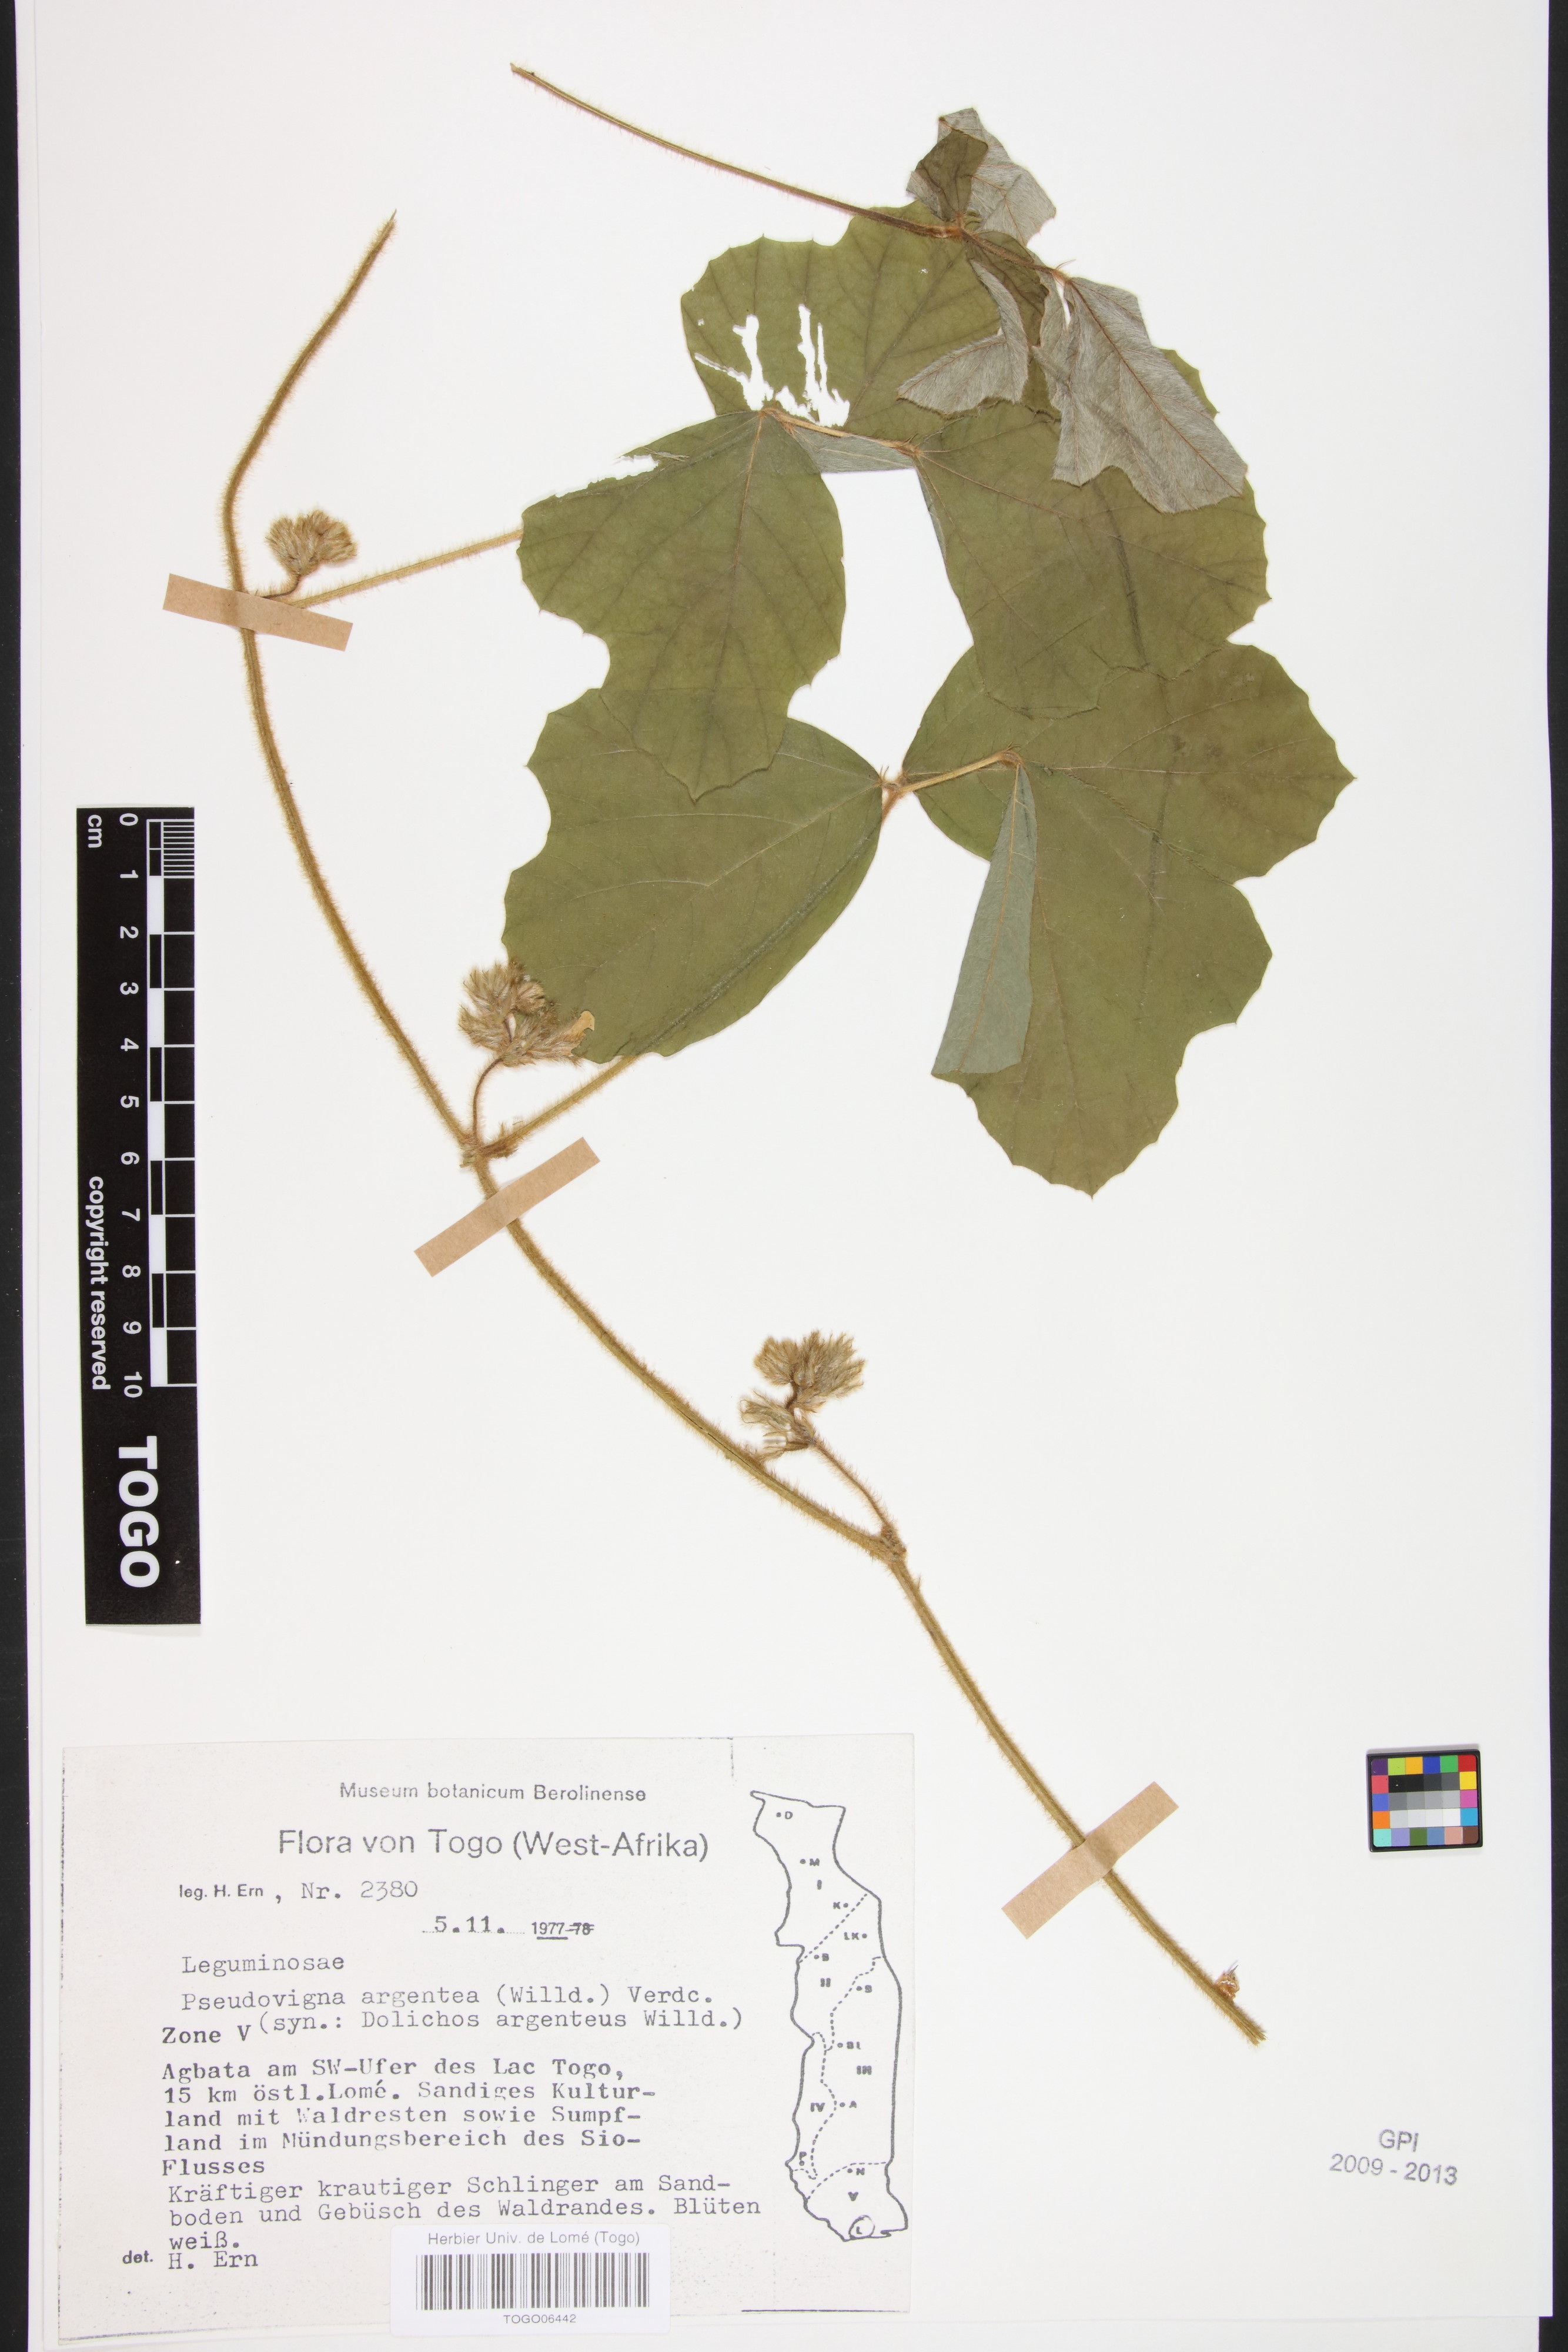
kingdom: Plantae
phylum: Tracheophyta
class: Magnoliopsida
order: Fabales
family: Fabaceae
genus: Pseudovigna
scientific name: Pseudovigna argentea
